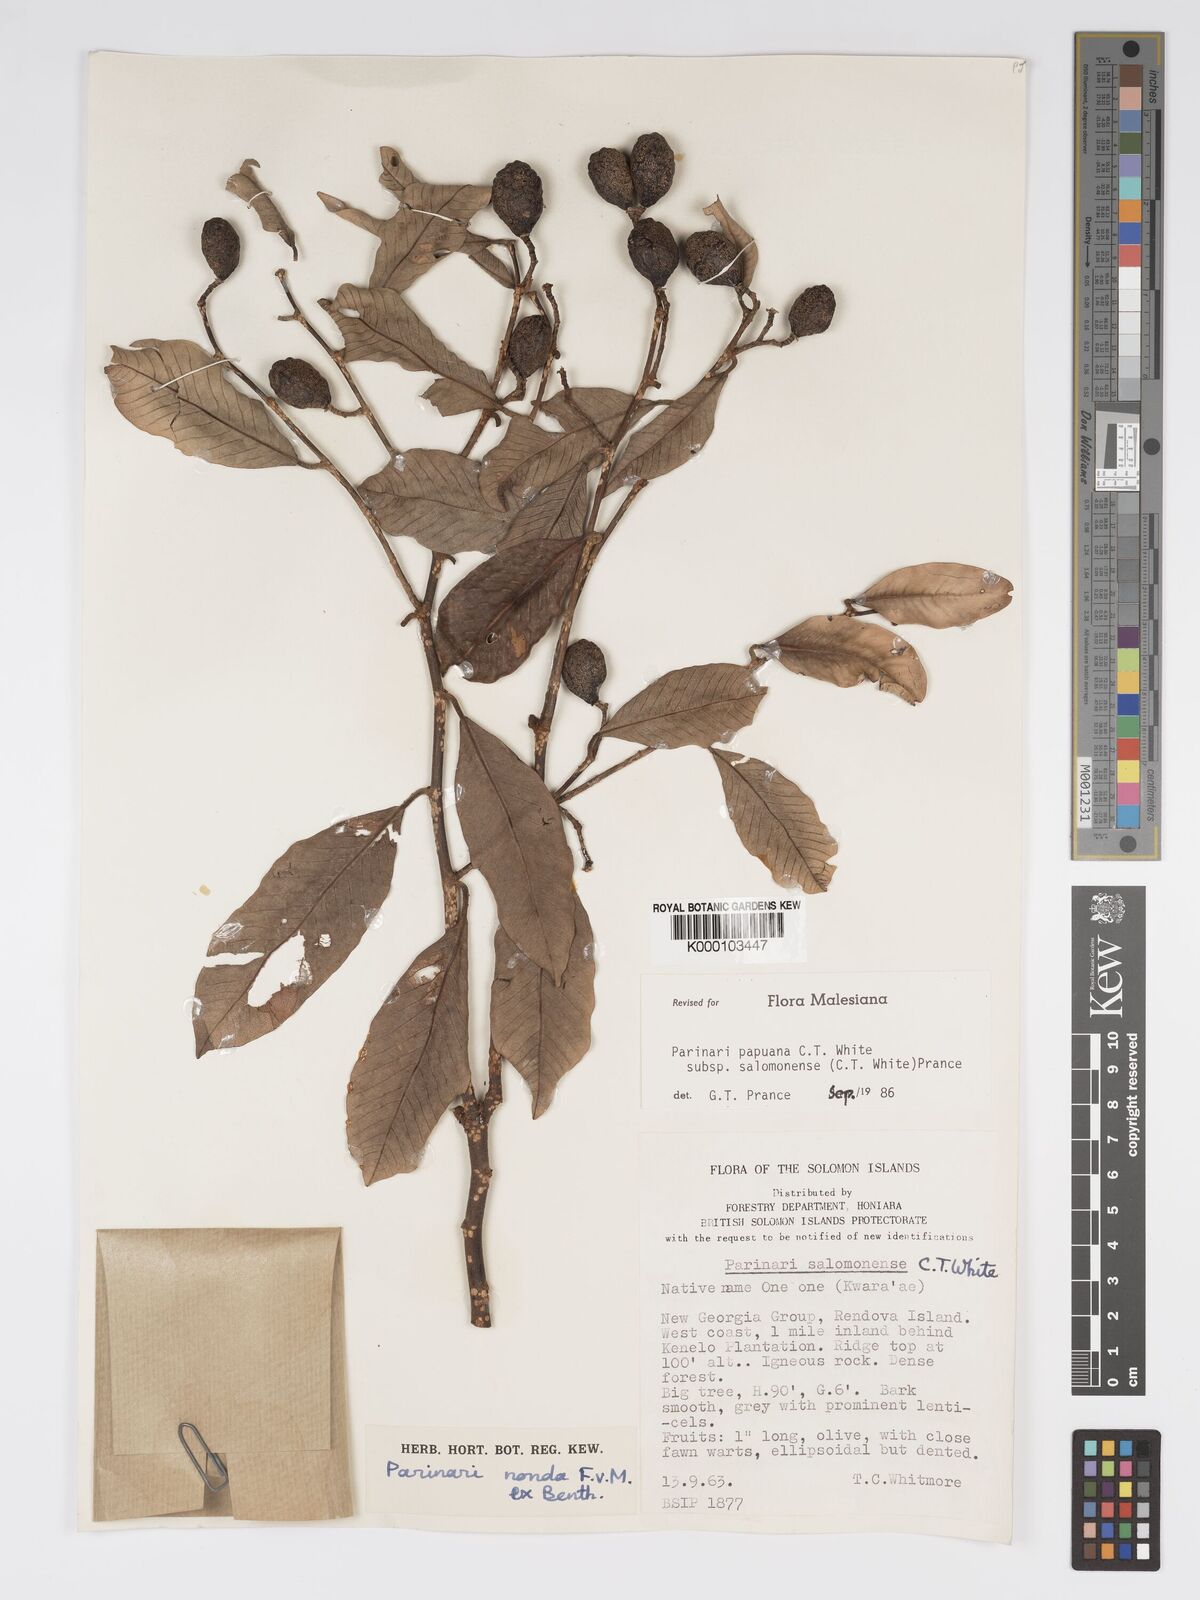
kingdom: Plantae
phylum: Tracheophyta
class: Magnoliopsida
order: Malpighiales
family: Chrysobalanaceae
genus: Parinari
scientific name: Parinari papuana
